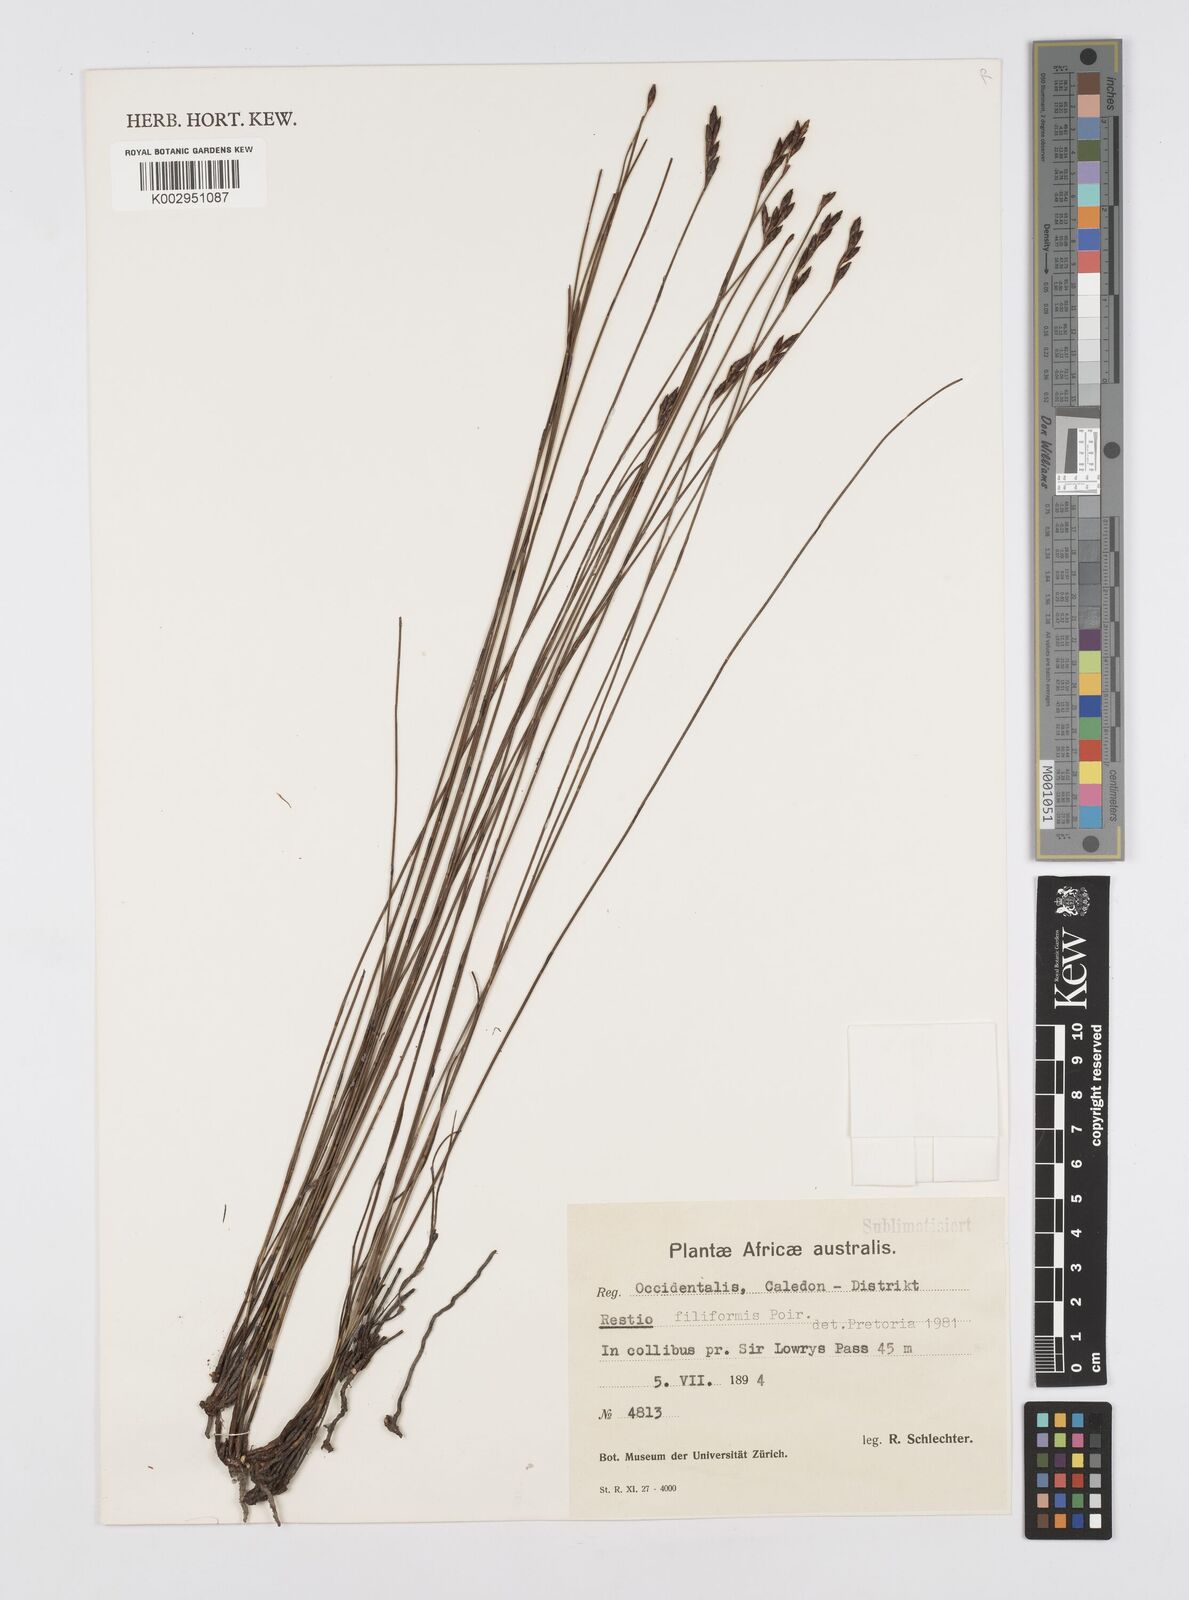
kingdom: Plantae
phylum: Tracheophyta
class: Liliopsida
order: Poales
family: Restionaceae
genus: Restio
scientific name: Restio filiformis
